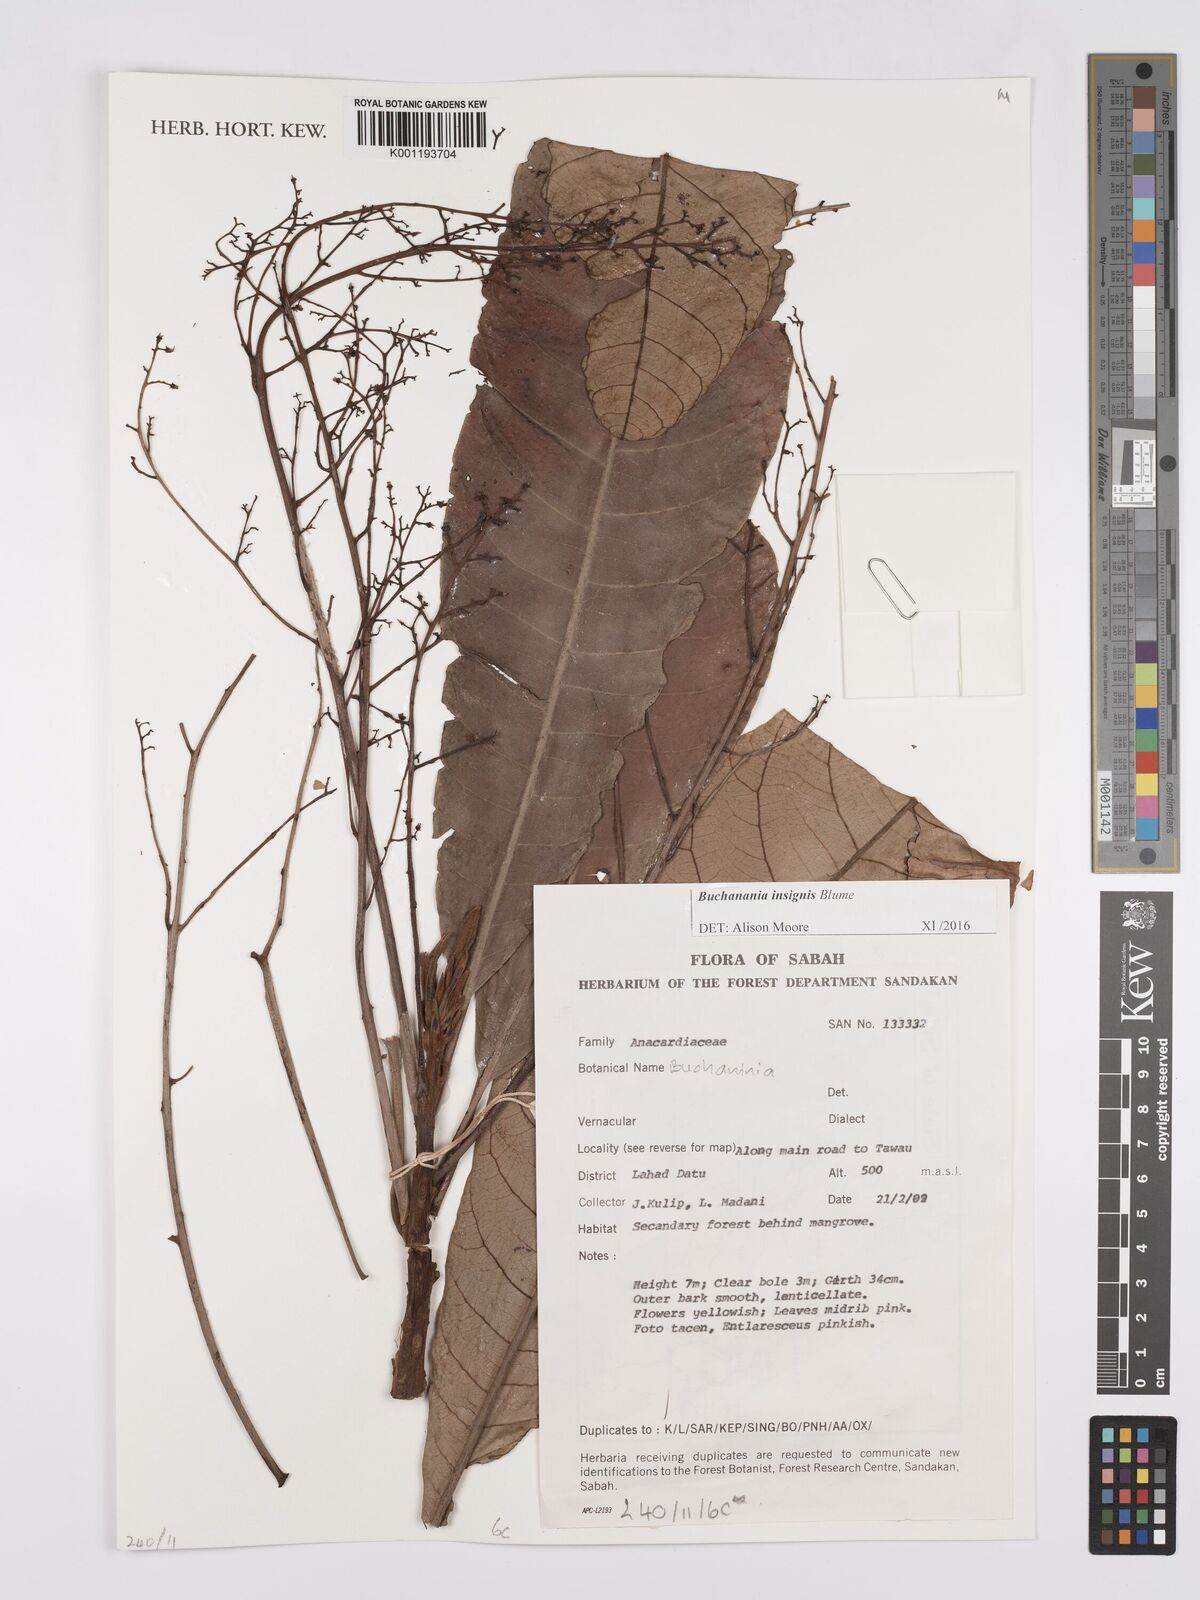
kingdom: Plantae
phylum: Tracheophyta
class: Magnoliopsida
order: Sapindales
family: Anacardiaceae
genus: Buchanania
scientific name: Buchanania insignis
